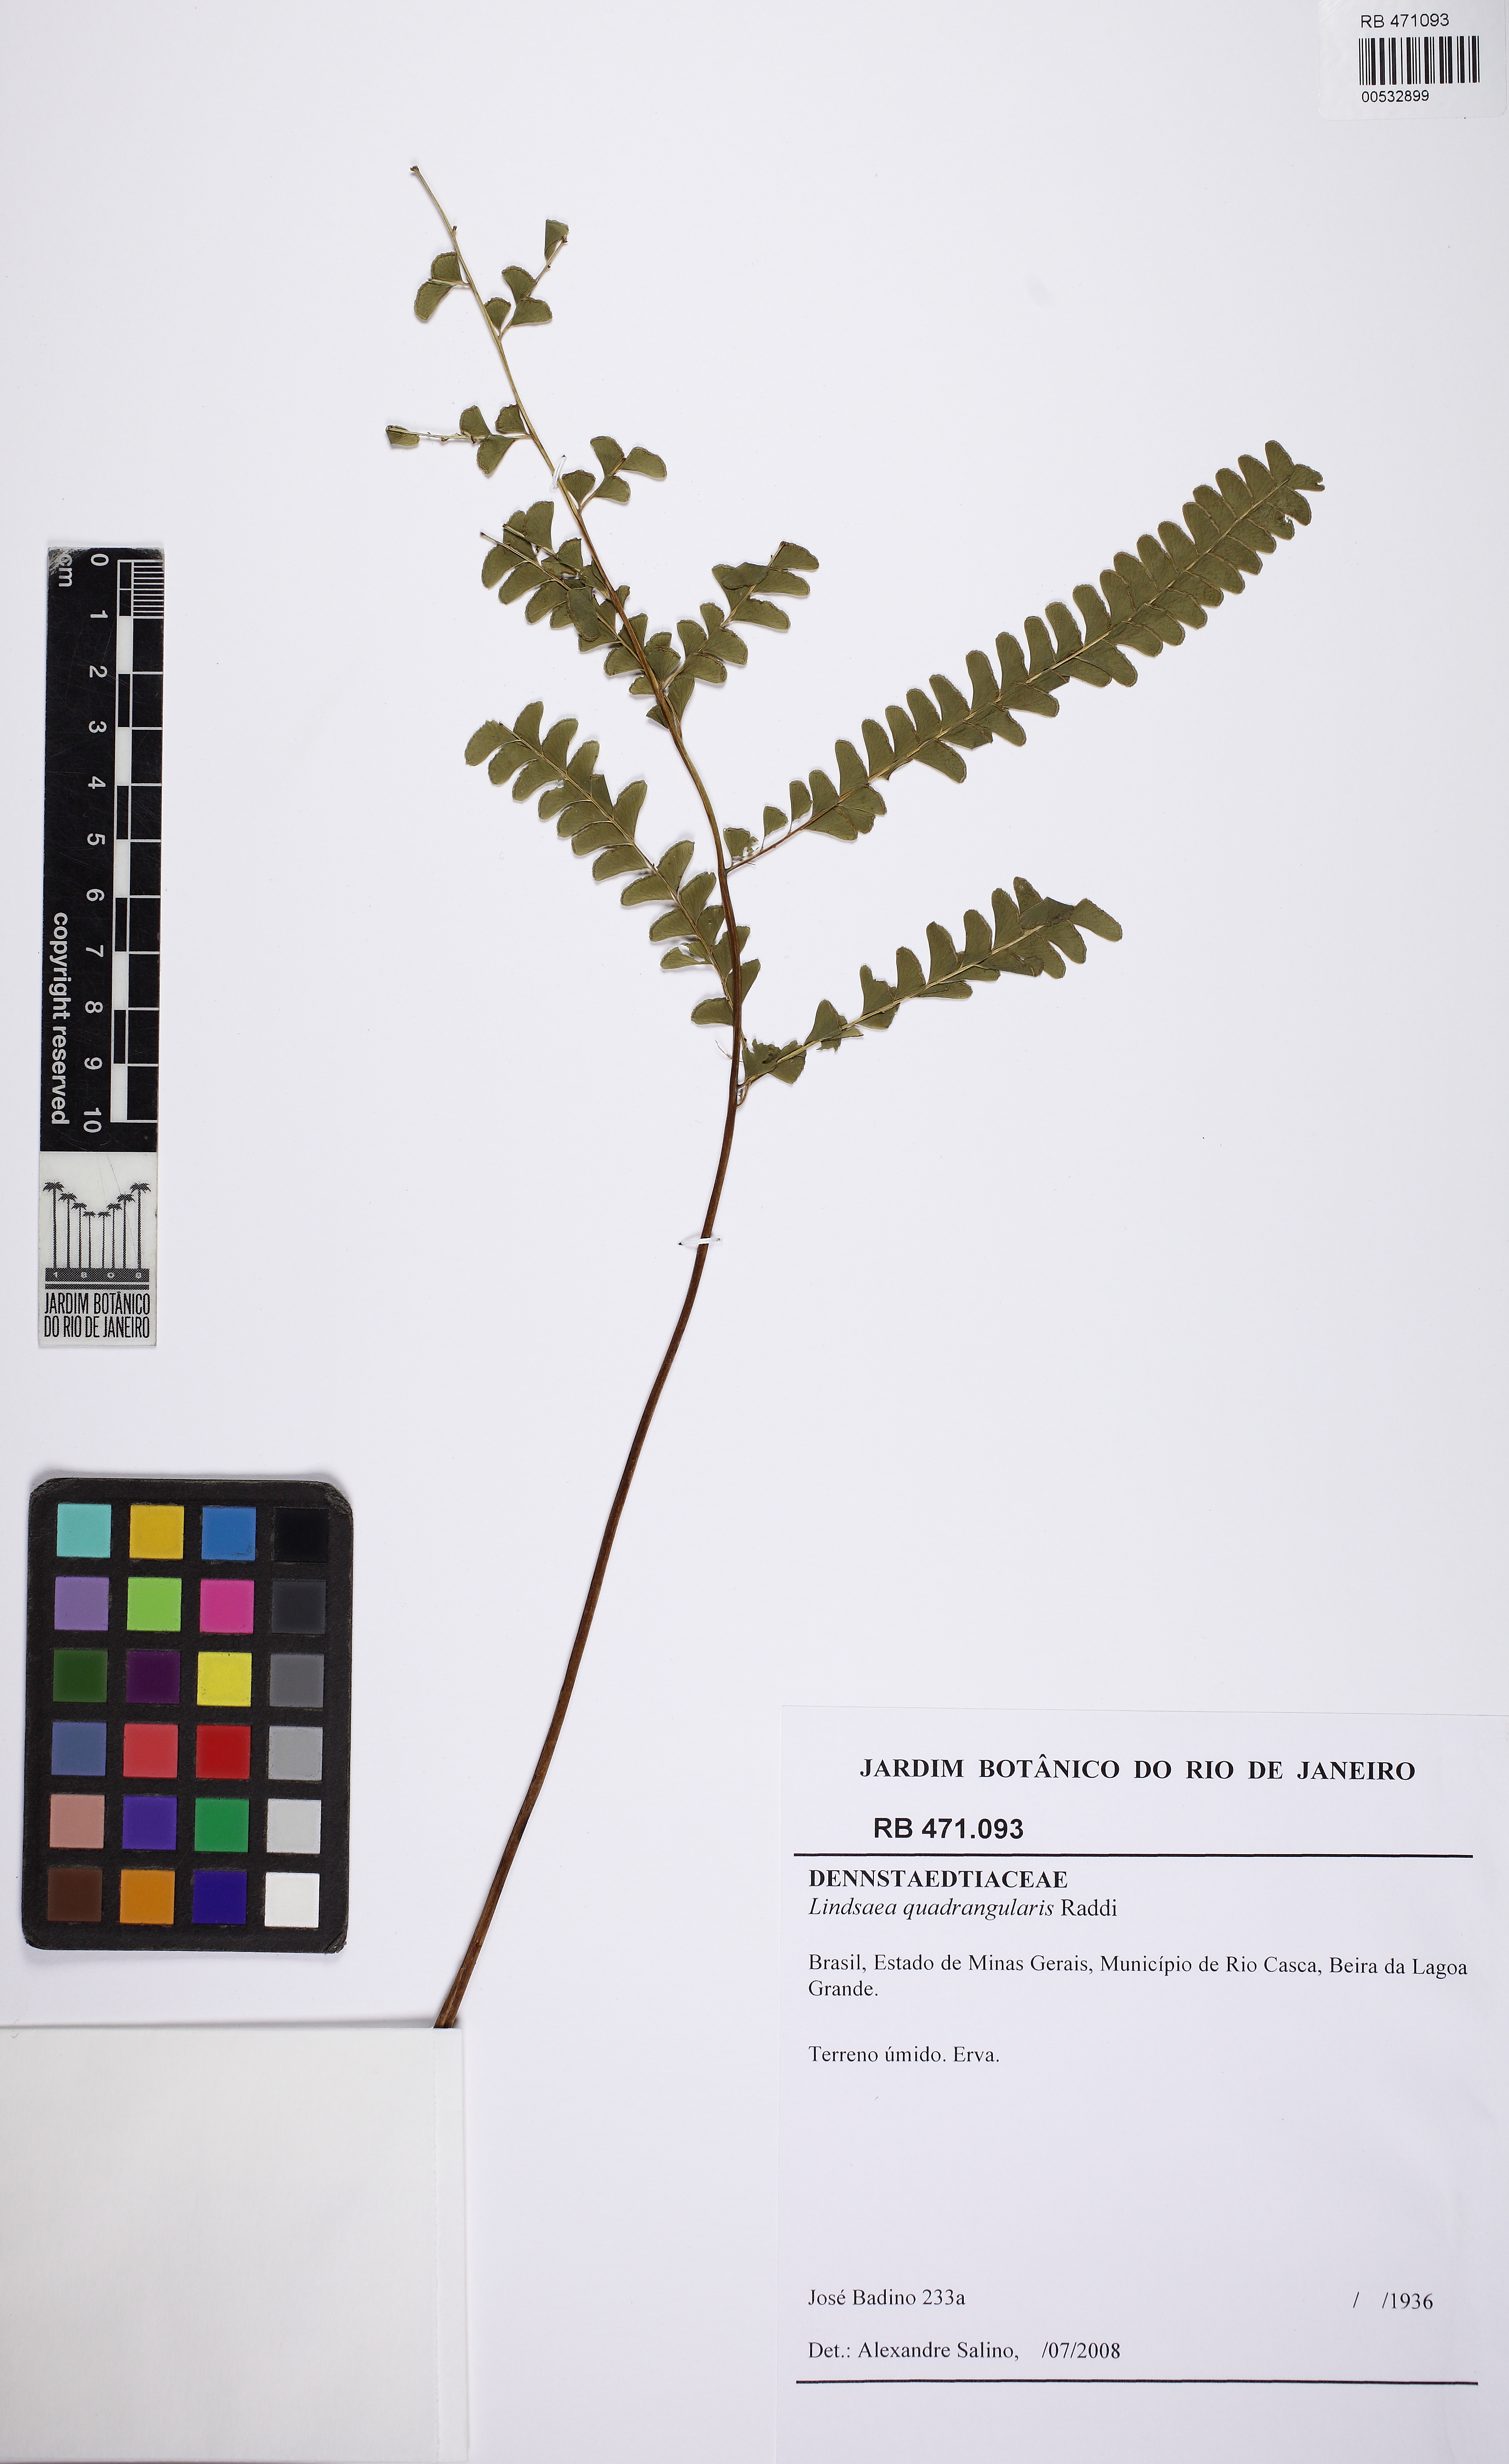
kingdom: Plantae
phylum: Tracheophyta
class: Polypodiopsida
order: Polypodiales
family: Lindsaeaceae
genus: Lindsaea
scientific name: Lindsaea quadrangularis
